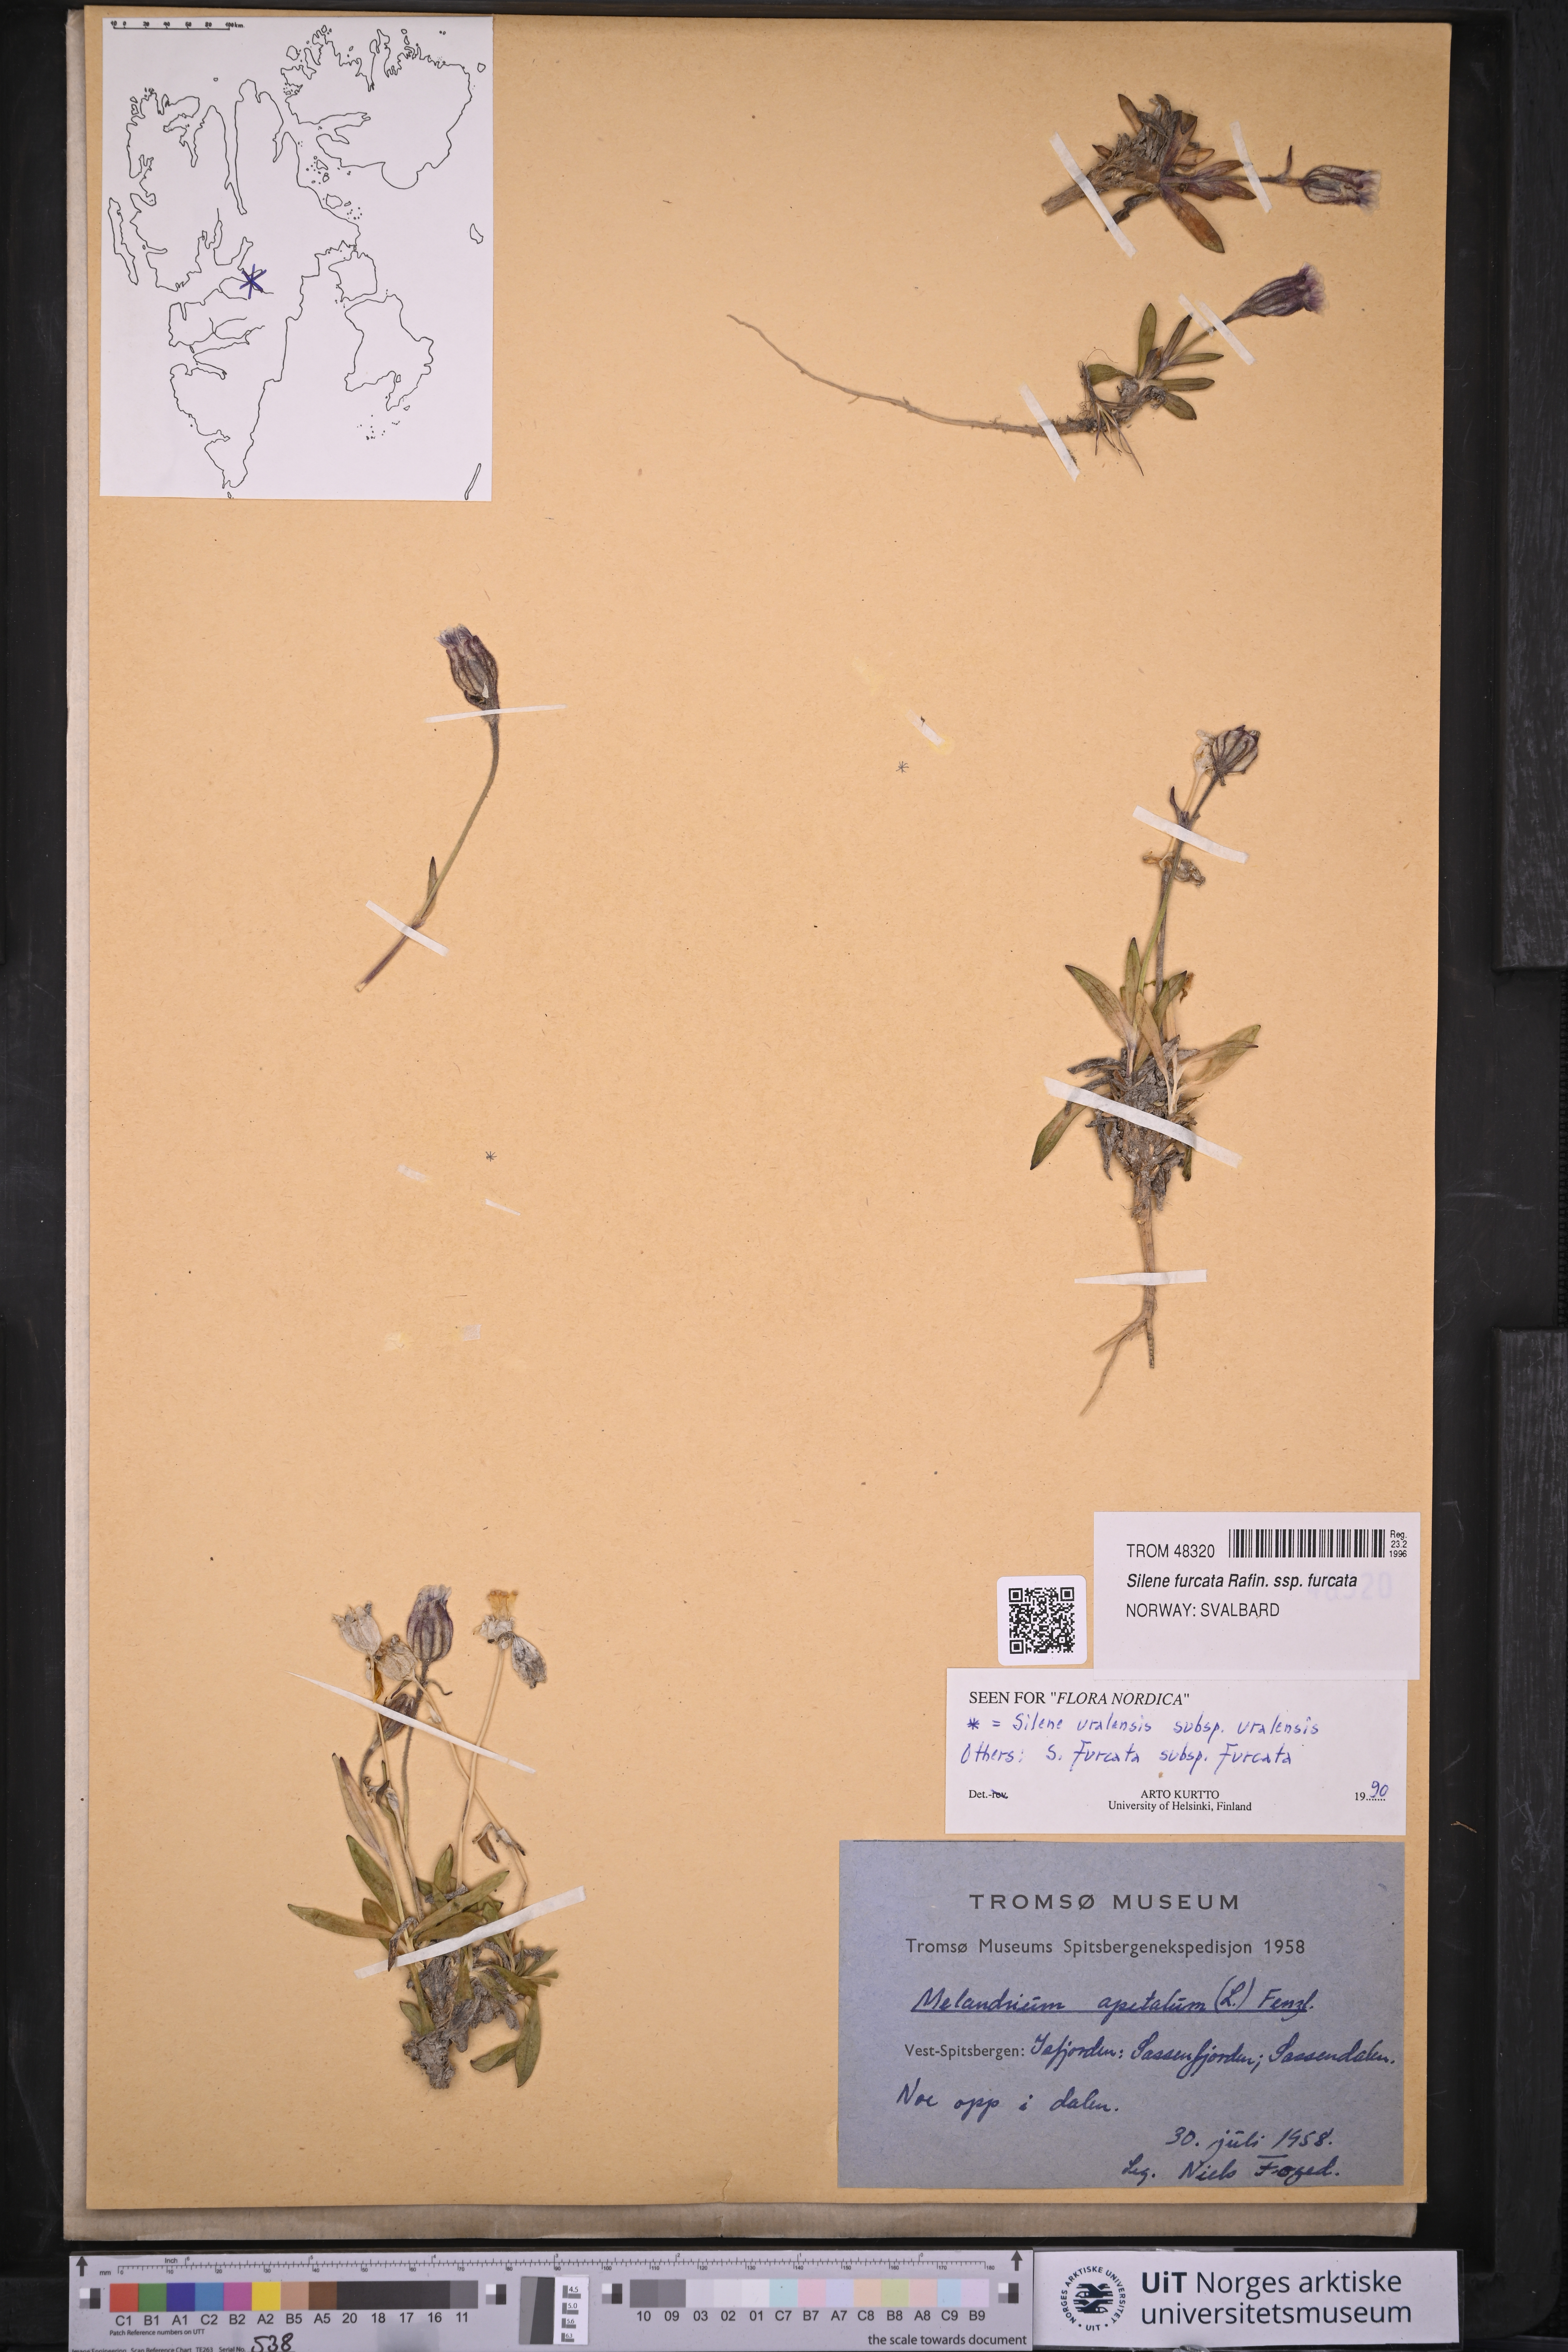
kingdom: Plantae
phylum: Tracheophyta
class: Magnoliopsida
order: Caryophyllales
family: Caryophyllaceae
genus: Silene
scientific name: Silene involucrata
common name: Greater arctic campion
